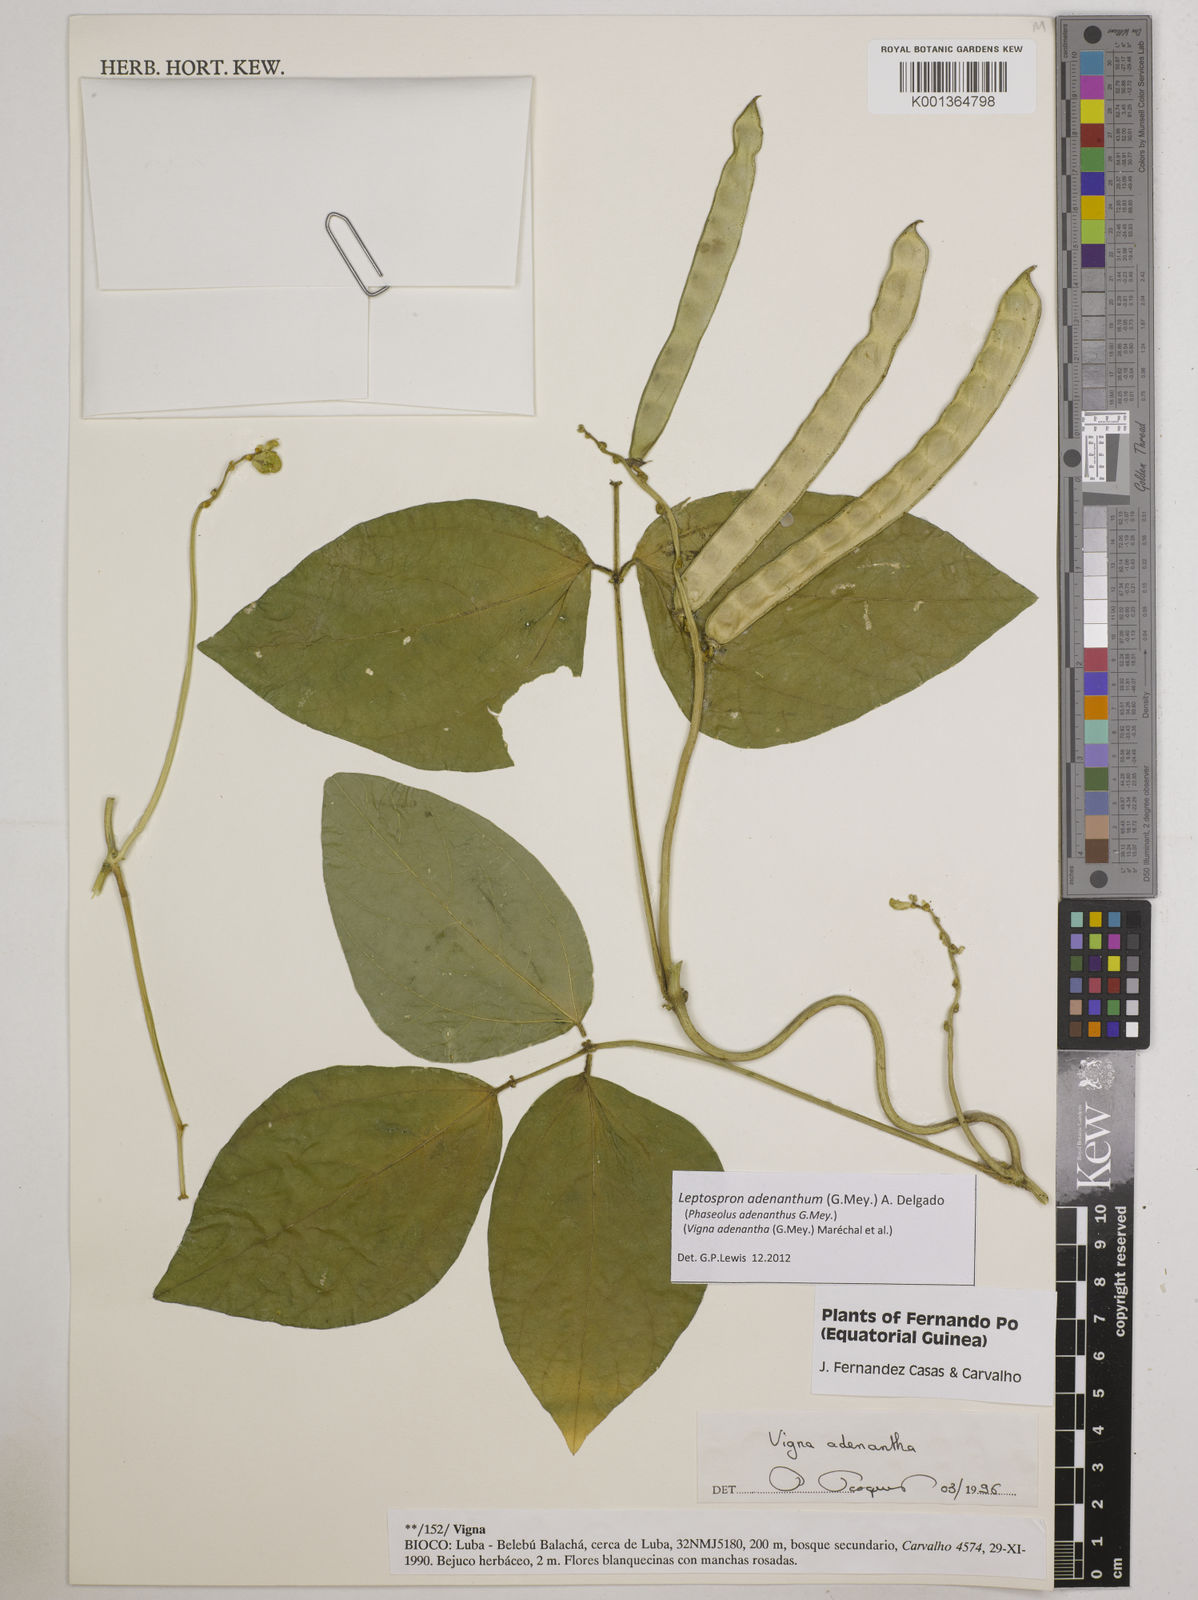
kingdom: Plantae
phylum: Tracheophyta
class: Magnoliopsida
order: Fabales
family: Fabaceae
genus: Leptospron
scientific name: Leptospron adenanthum
